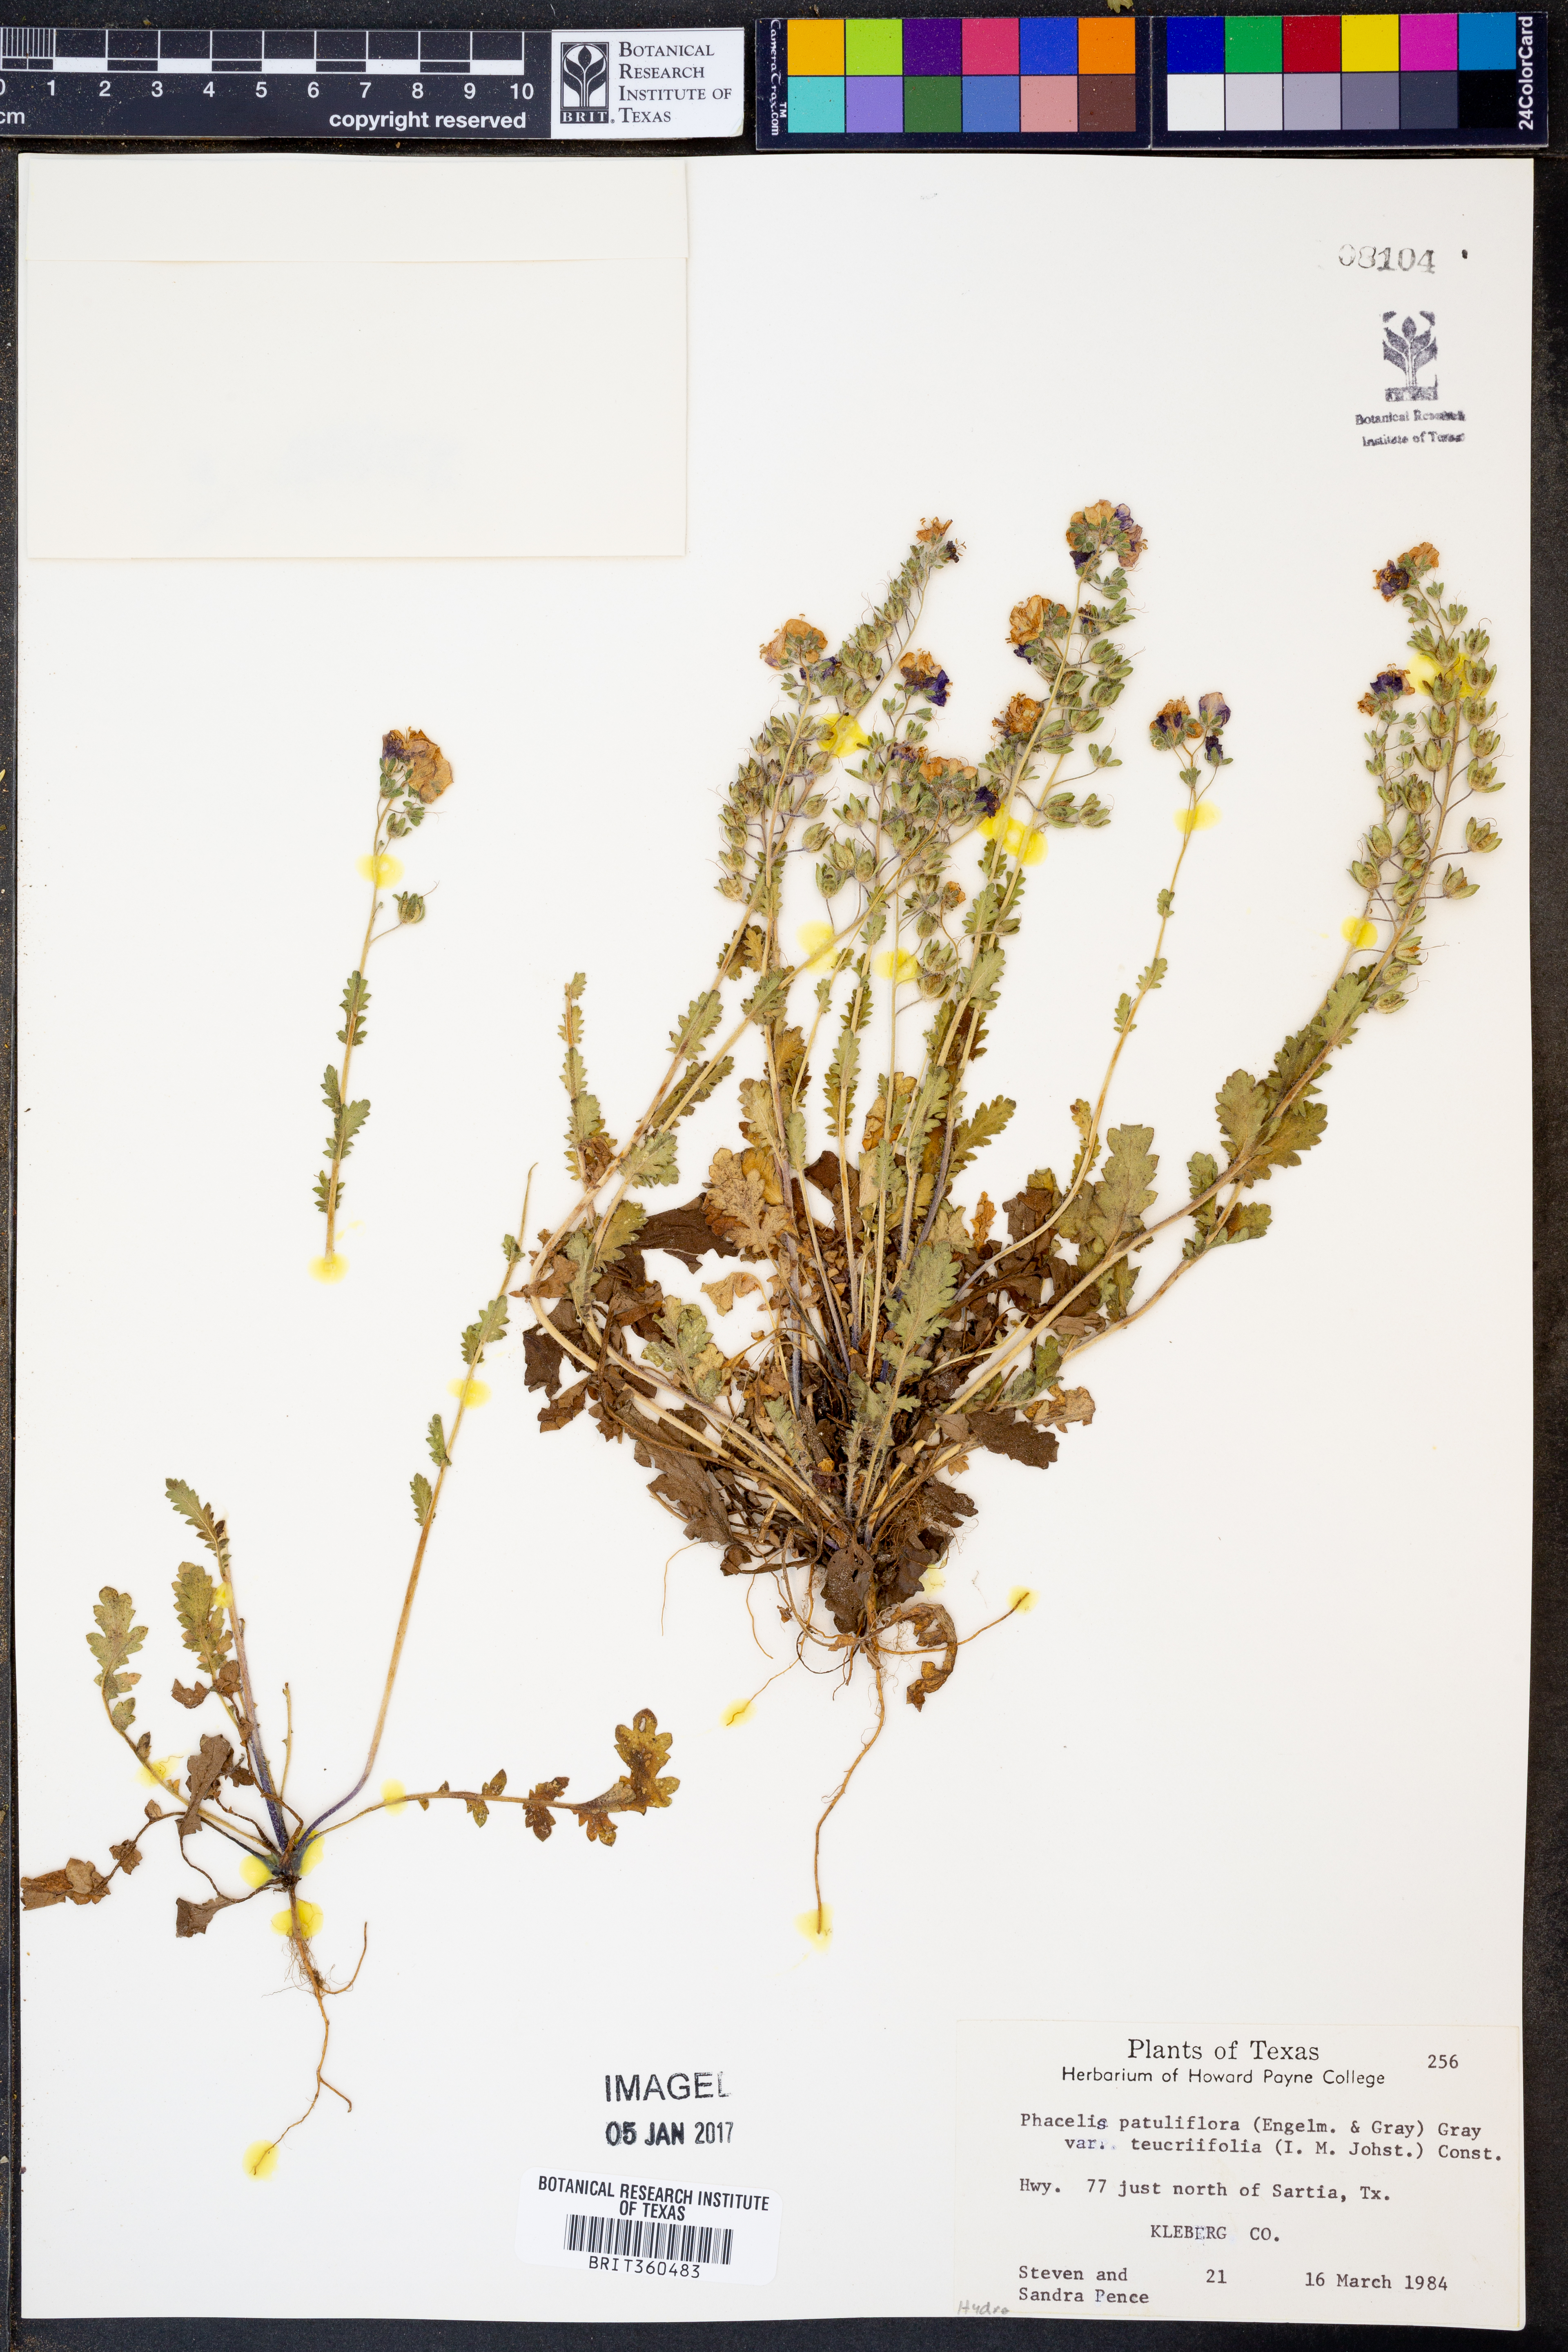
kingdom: Plantae
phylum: Tracheophyta
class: Magnoliopsida
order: Boraginales
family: Hydrophyllaceae
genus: Phacelia
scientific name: Phacelia patuliflora
